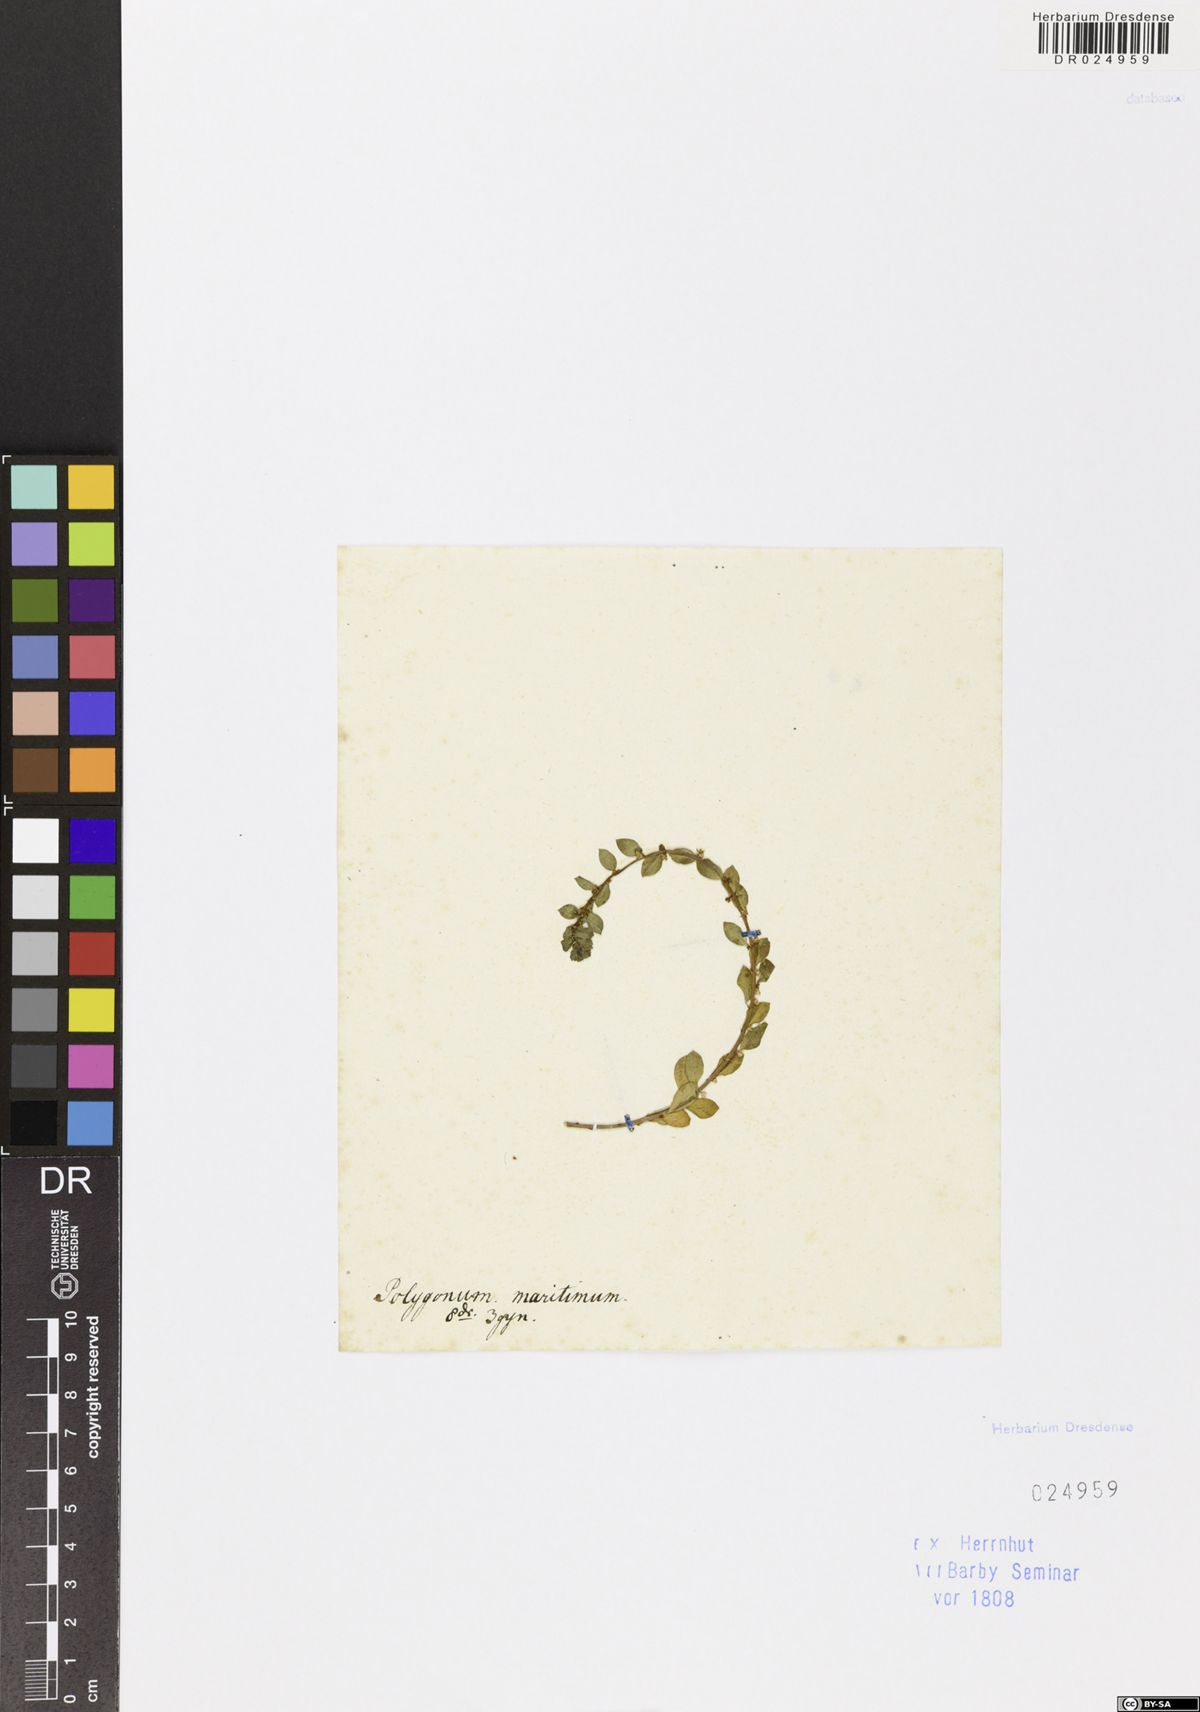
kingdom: Plantae
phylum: Tracheophyta
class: Magnoliopsida
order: Caryophyllales
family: Polygonaceae
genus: Polygonum
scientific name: Polygonum maritimum
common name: Sea knotgrass
